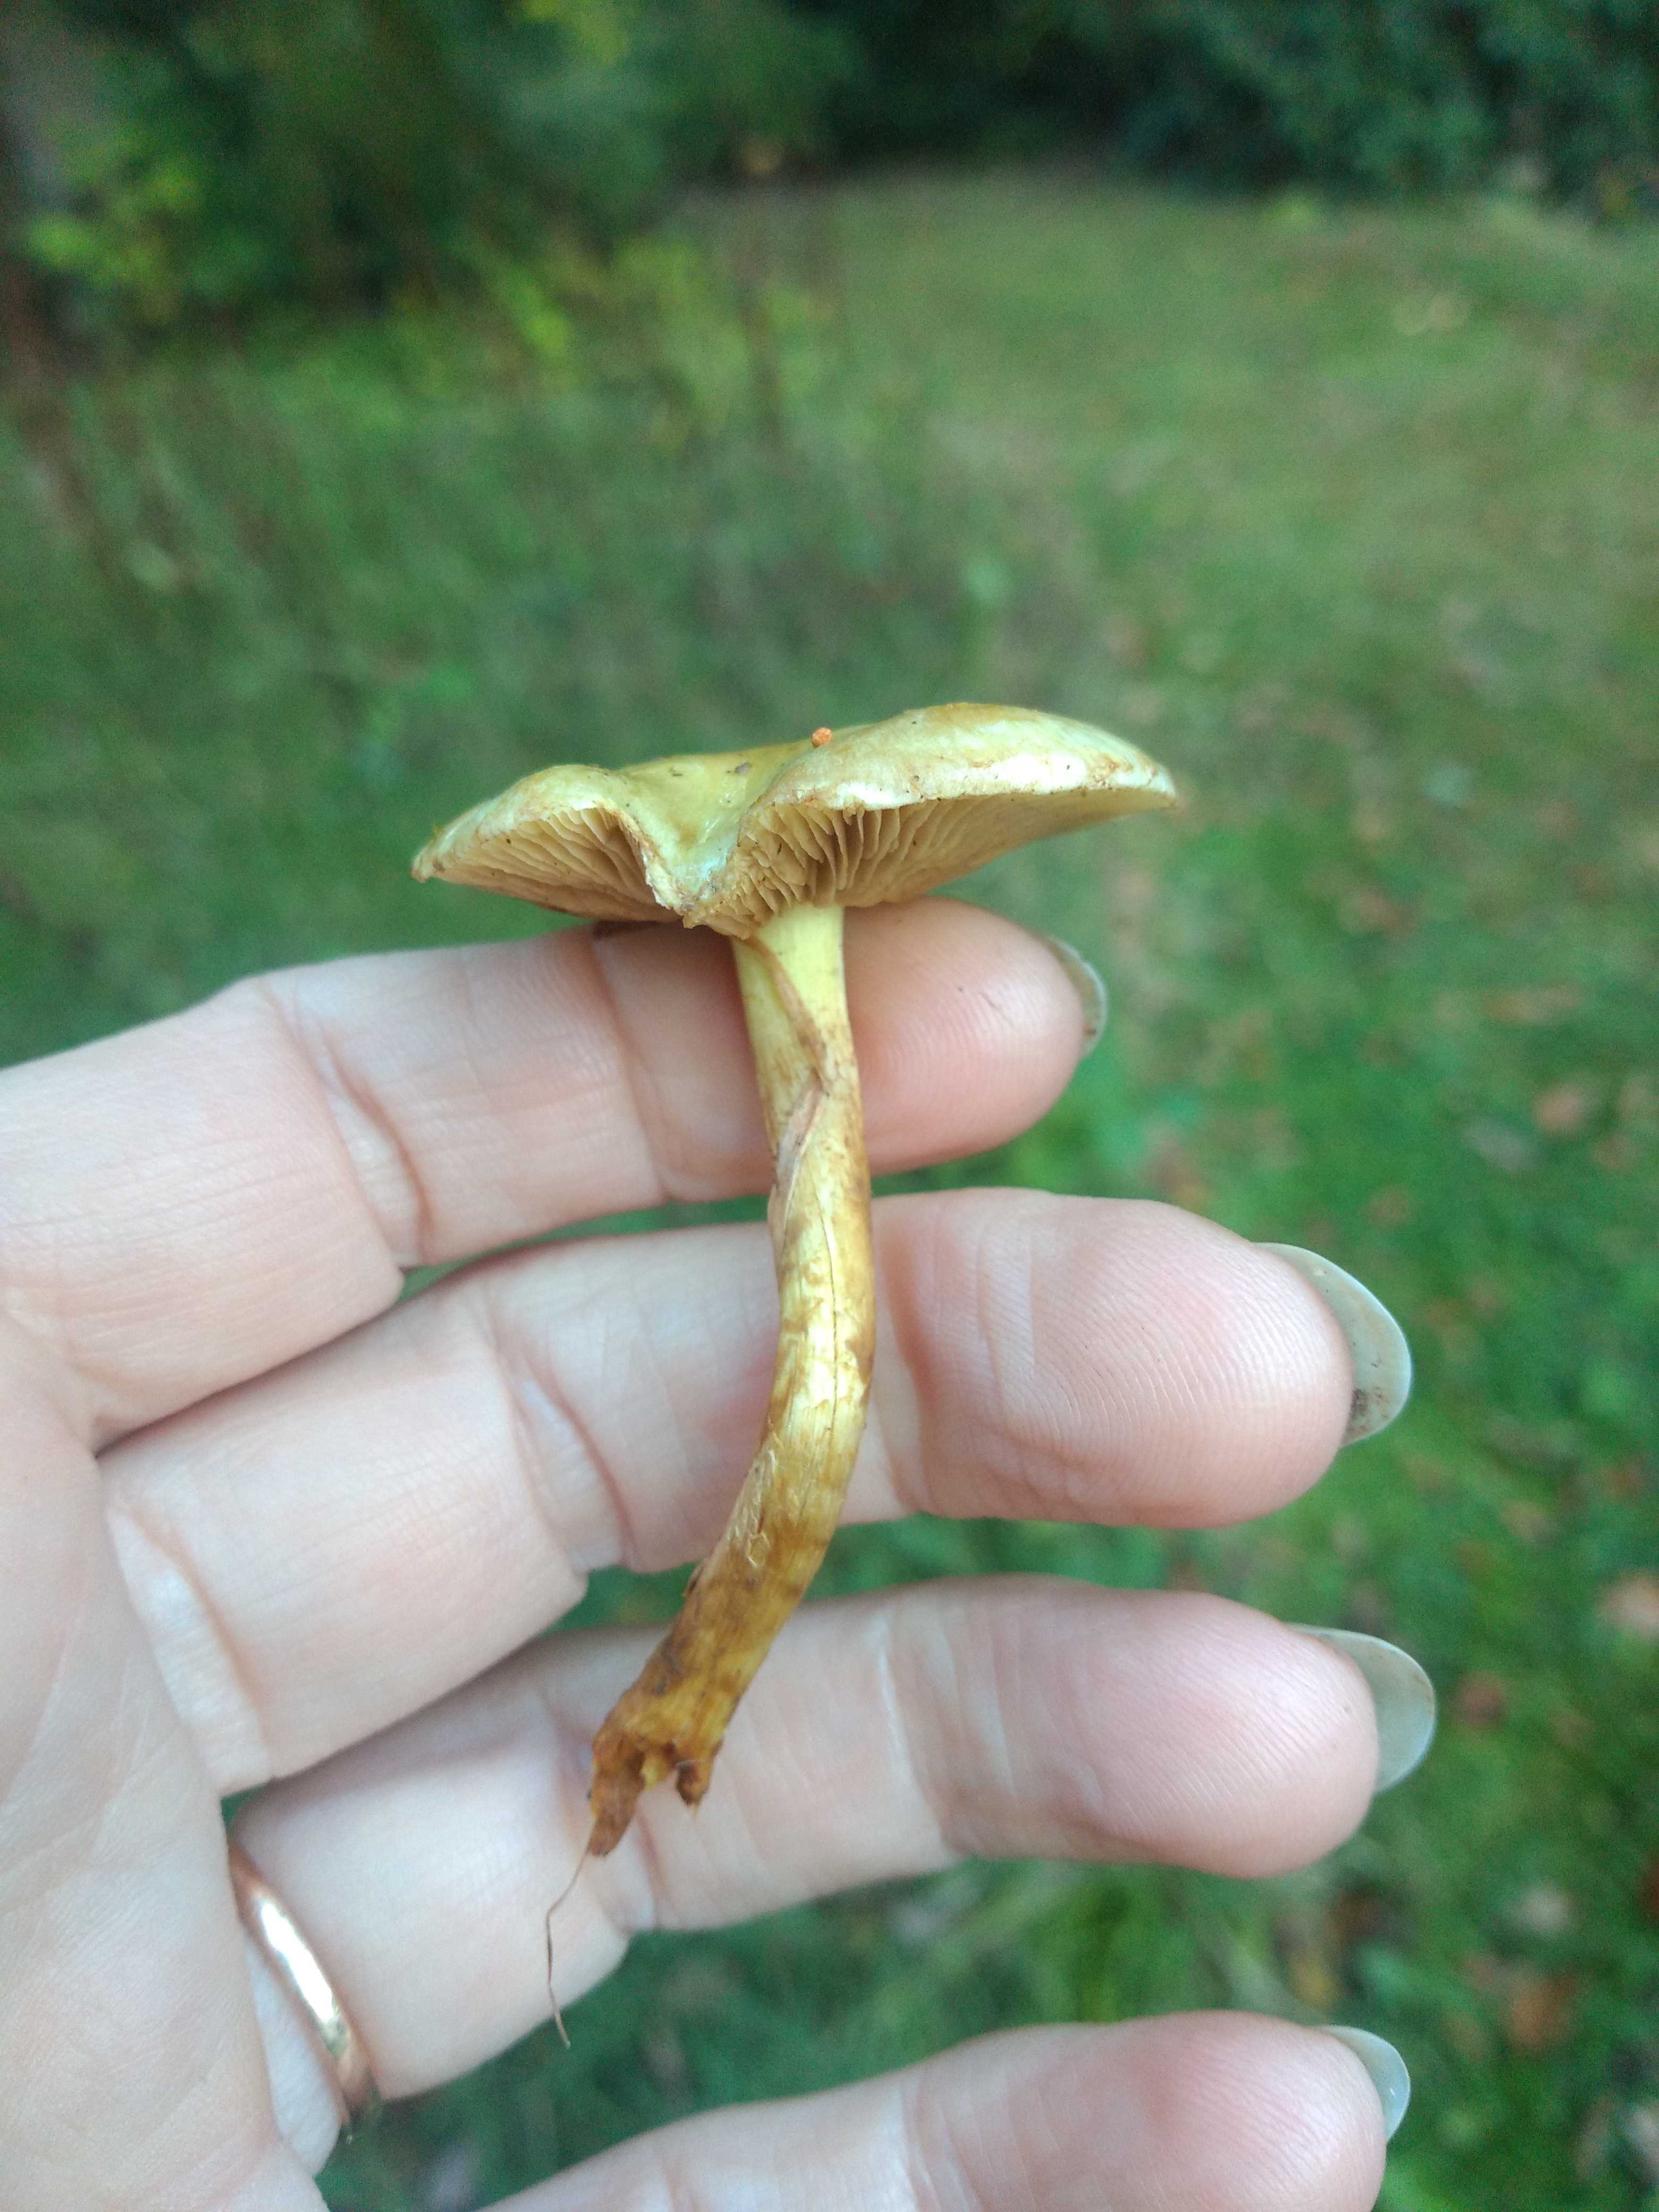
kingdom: Fungi
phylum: Basidiomycota
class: Agaricomycetes
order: Agaricales
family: Strophariaceae
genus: Pholiota
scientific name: Pholiota gummosa
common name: grøngul skælhat
